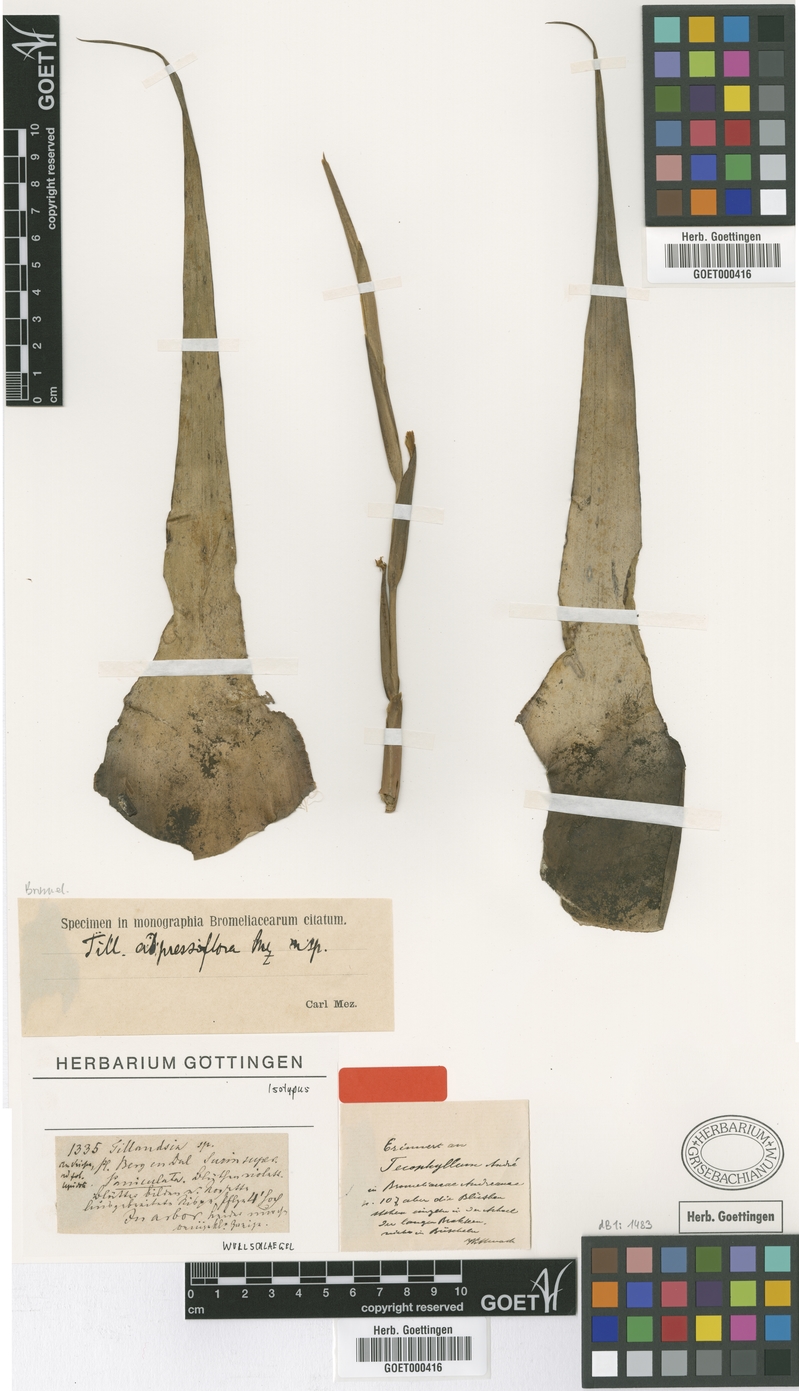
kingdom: Plantae
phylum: Tracheophyta
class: Liliopsida
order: Poales
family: Bromeliaceae
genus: Tillandsia
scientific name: Tillandsia adpressiflora
